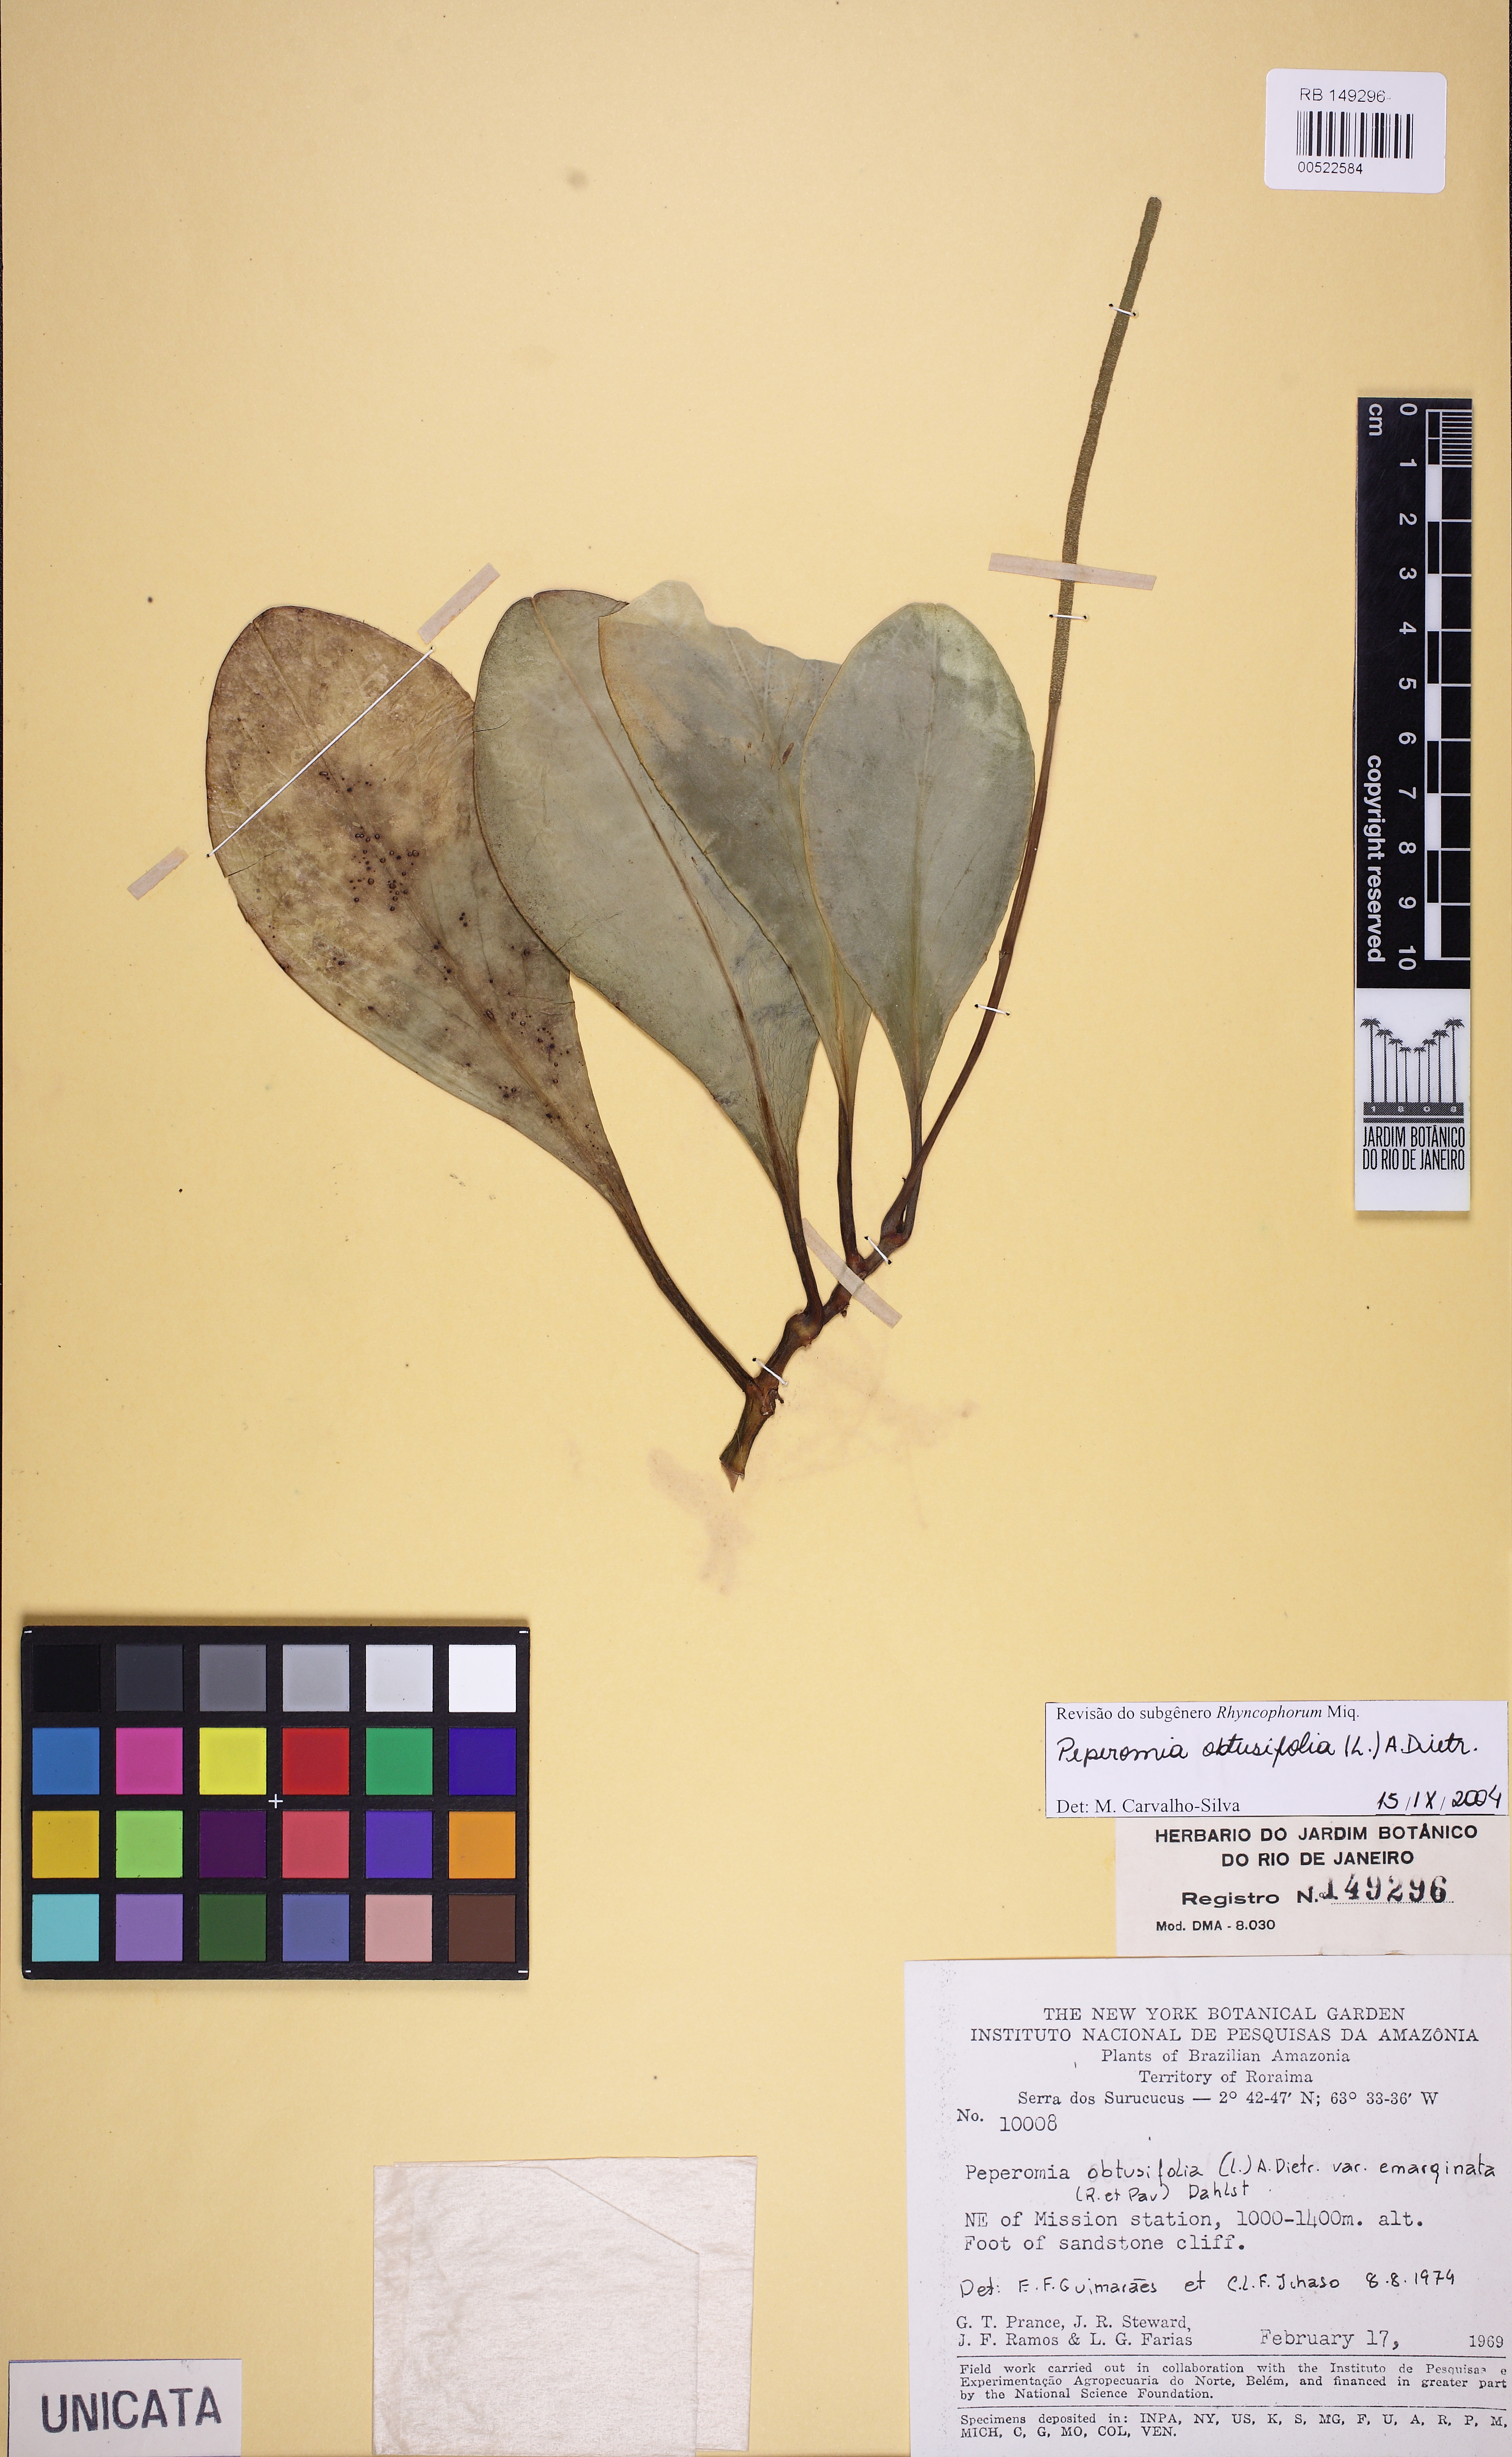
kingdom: Plantae
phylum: Tracheophyta
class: Magnoliopsida
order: Piperales
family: Piperaceae
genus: Peperomia
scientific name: Peperomia obtusifolia
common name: Baby rubberplant
